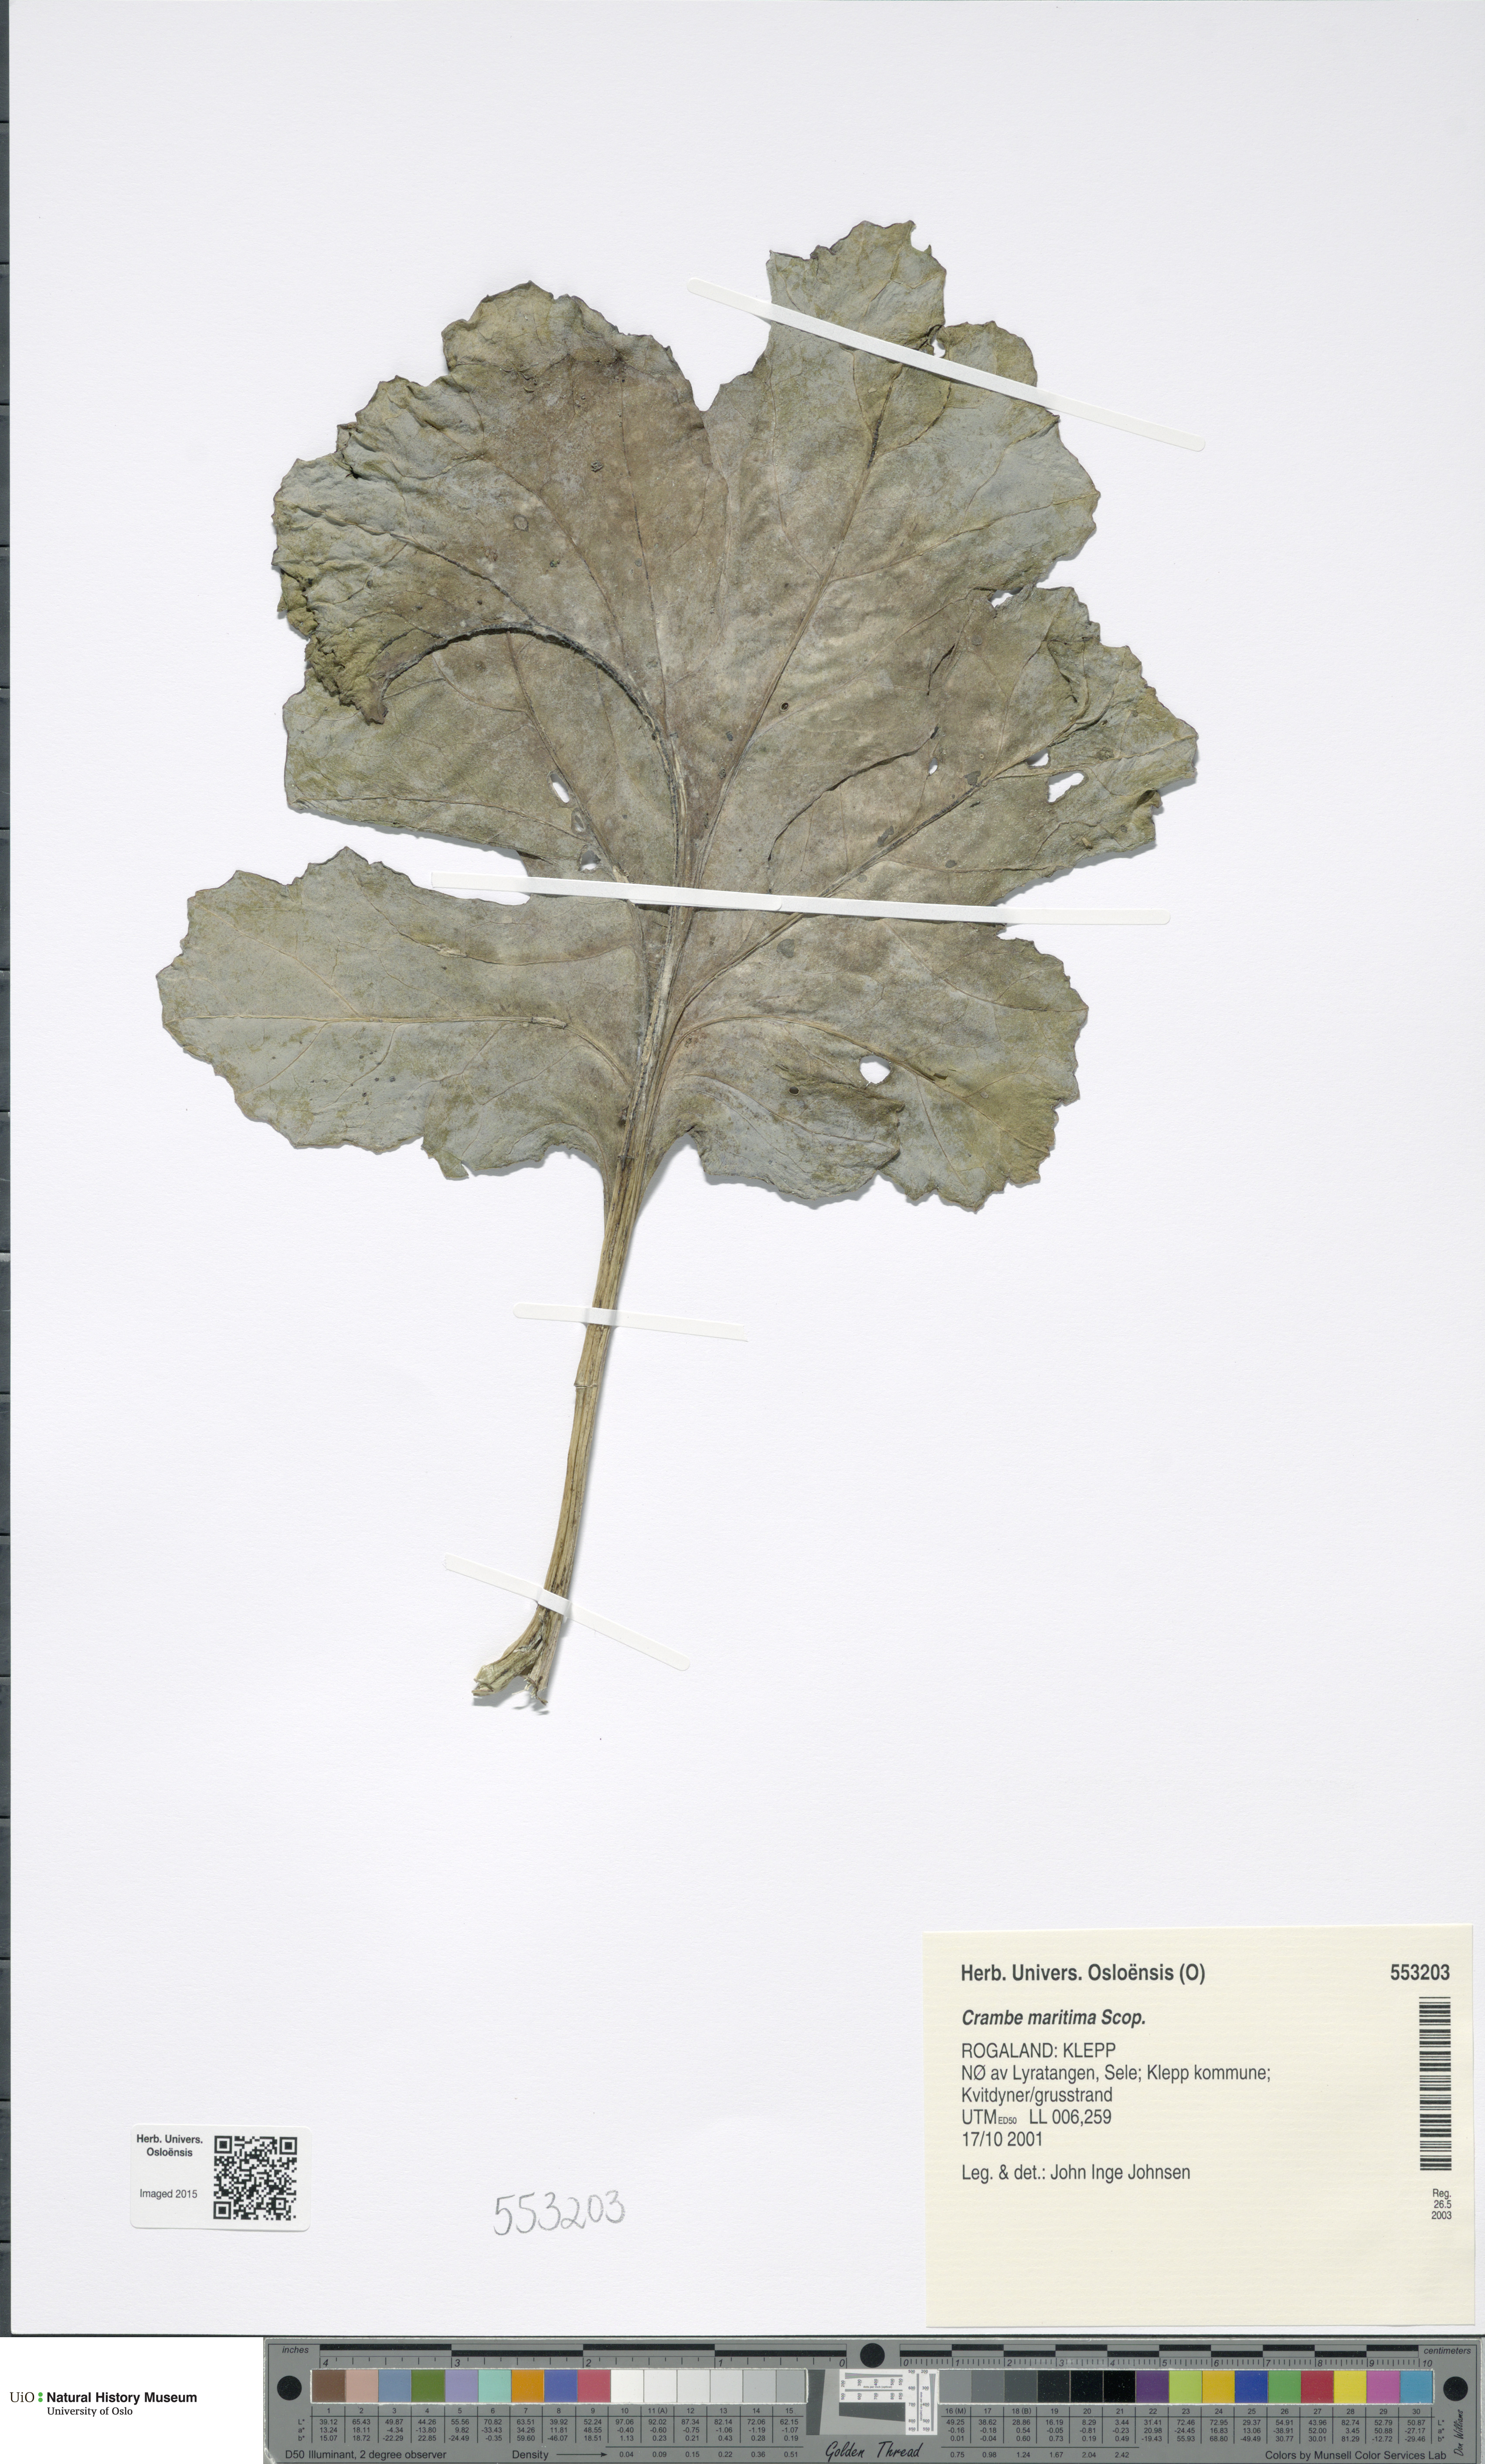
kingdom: Plantae
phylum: Tracheophyta
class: Magnoliopsida
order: Brassicales
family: Brassicaceae
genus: Crambe
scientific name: Crambe maritima
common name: Sea-kale
